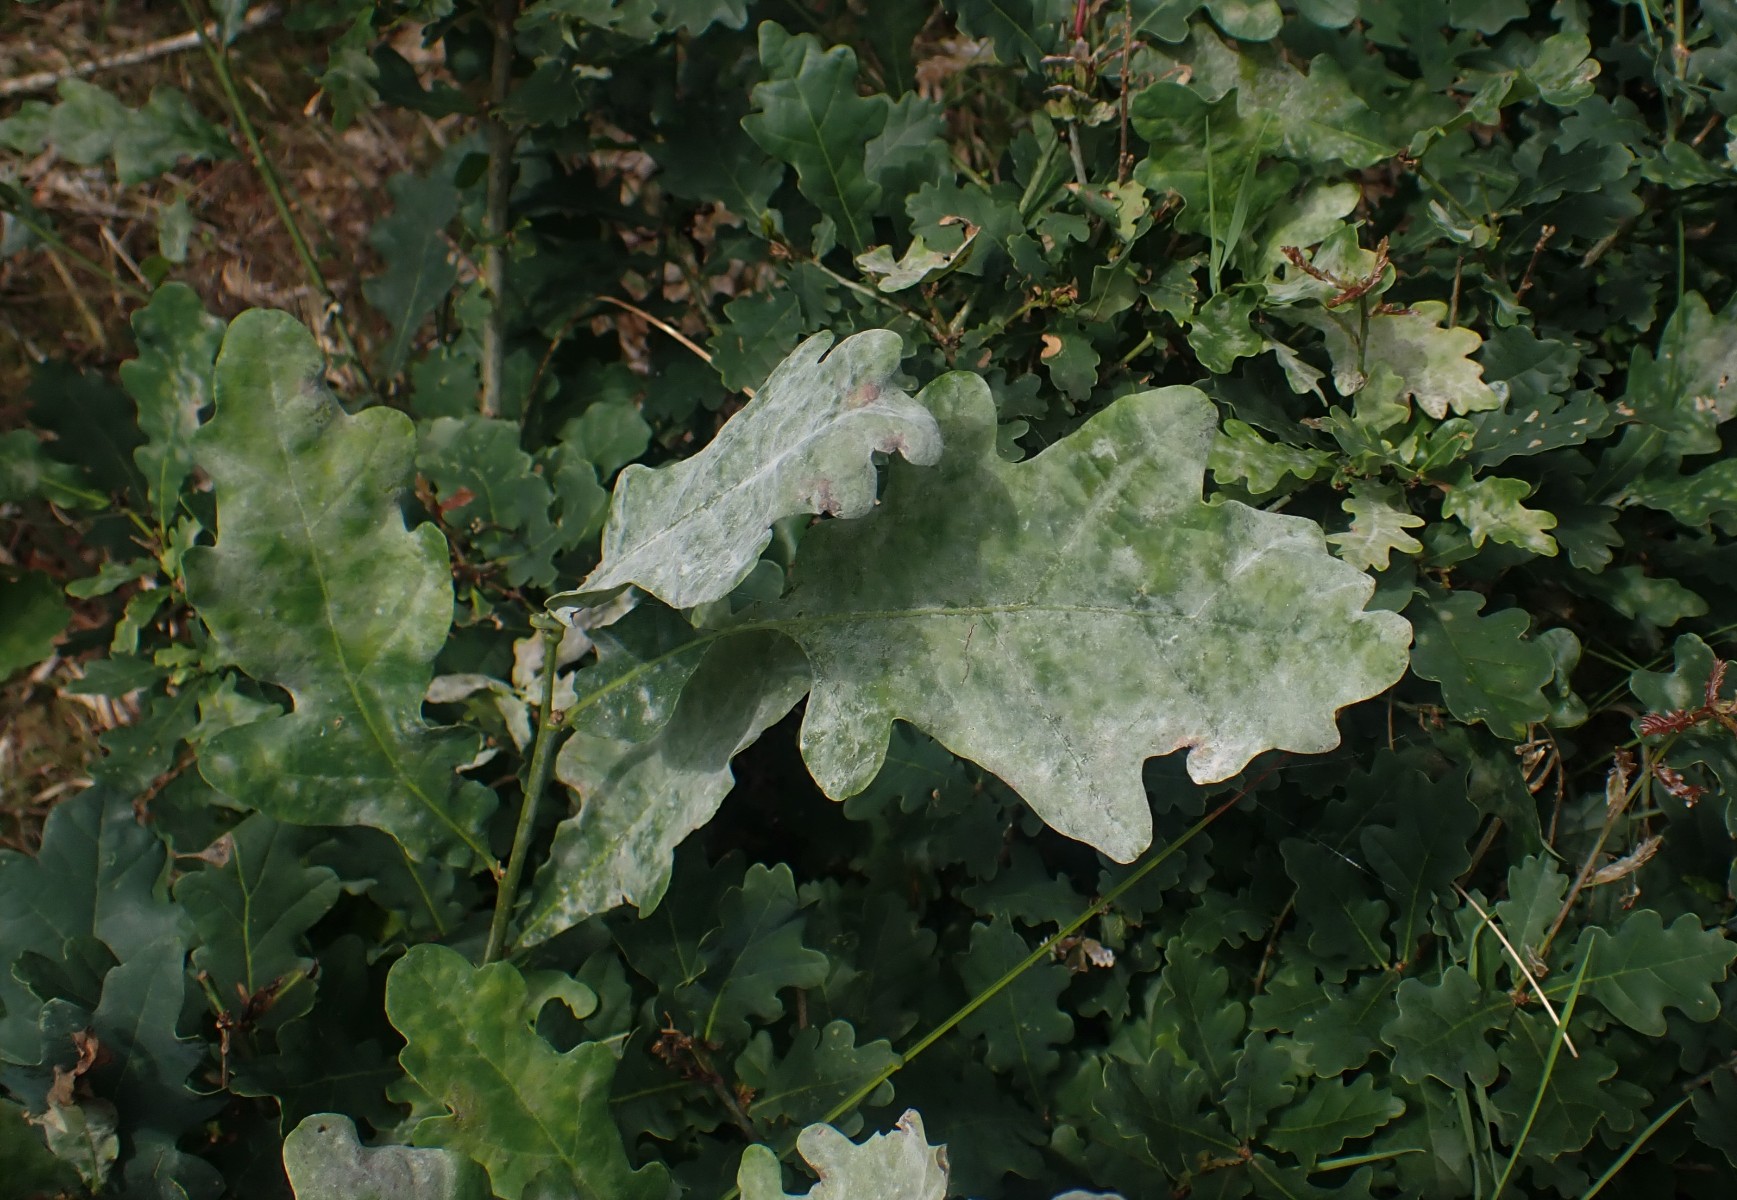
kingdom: Fungi
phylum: Ascomycota
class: Leotiomycetes
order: Helotiales
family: Erysiphaceae
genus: Erysiphe
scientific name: Erysiphe alphitoides
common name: ege-meldug
